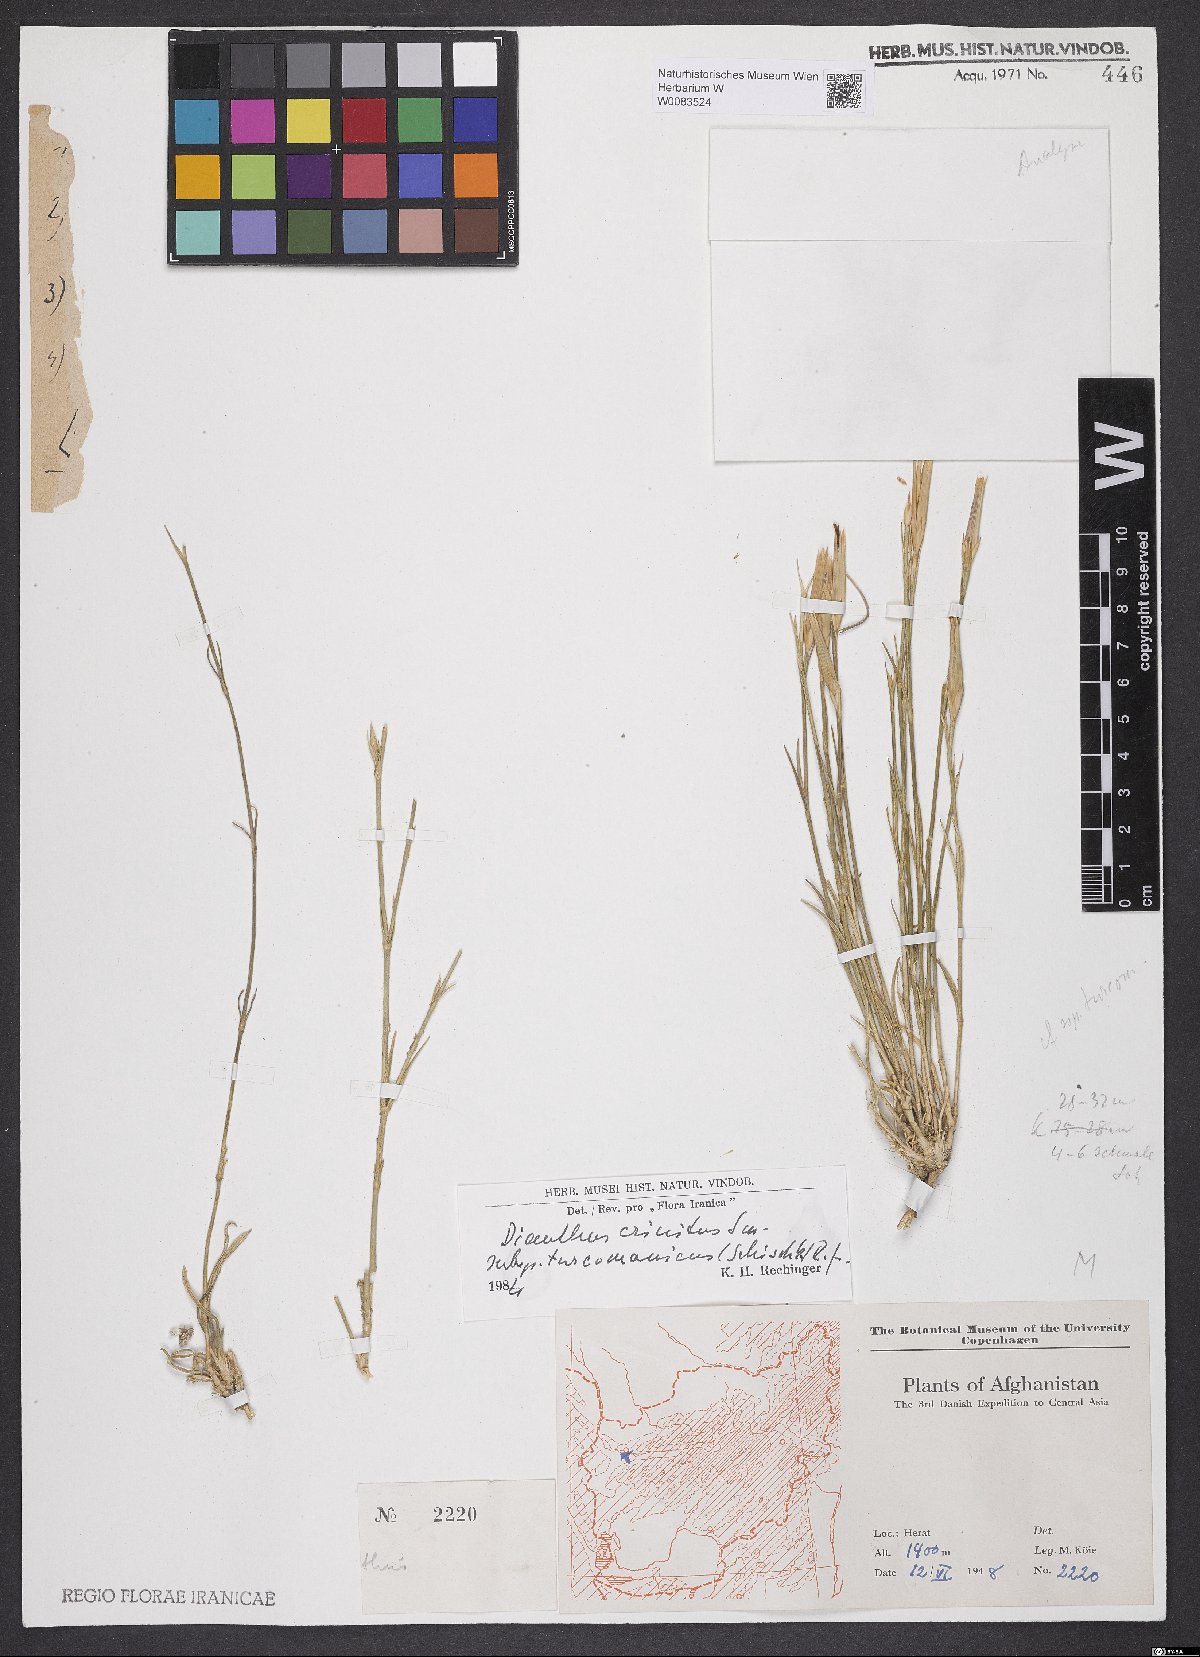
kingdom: Plantae
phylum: Tracheophyta
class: Magnoliopsida
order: Caryophyllales
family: Caryophyllaceae
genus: Dianthus
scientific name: Dianthus turkestanicus
